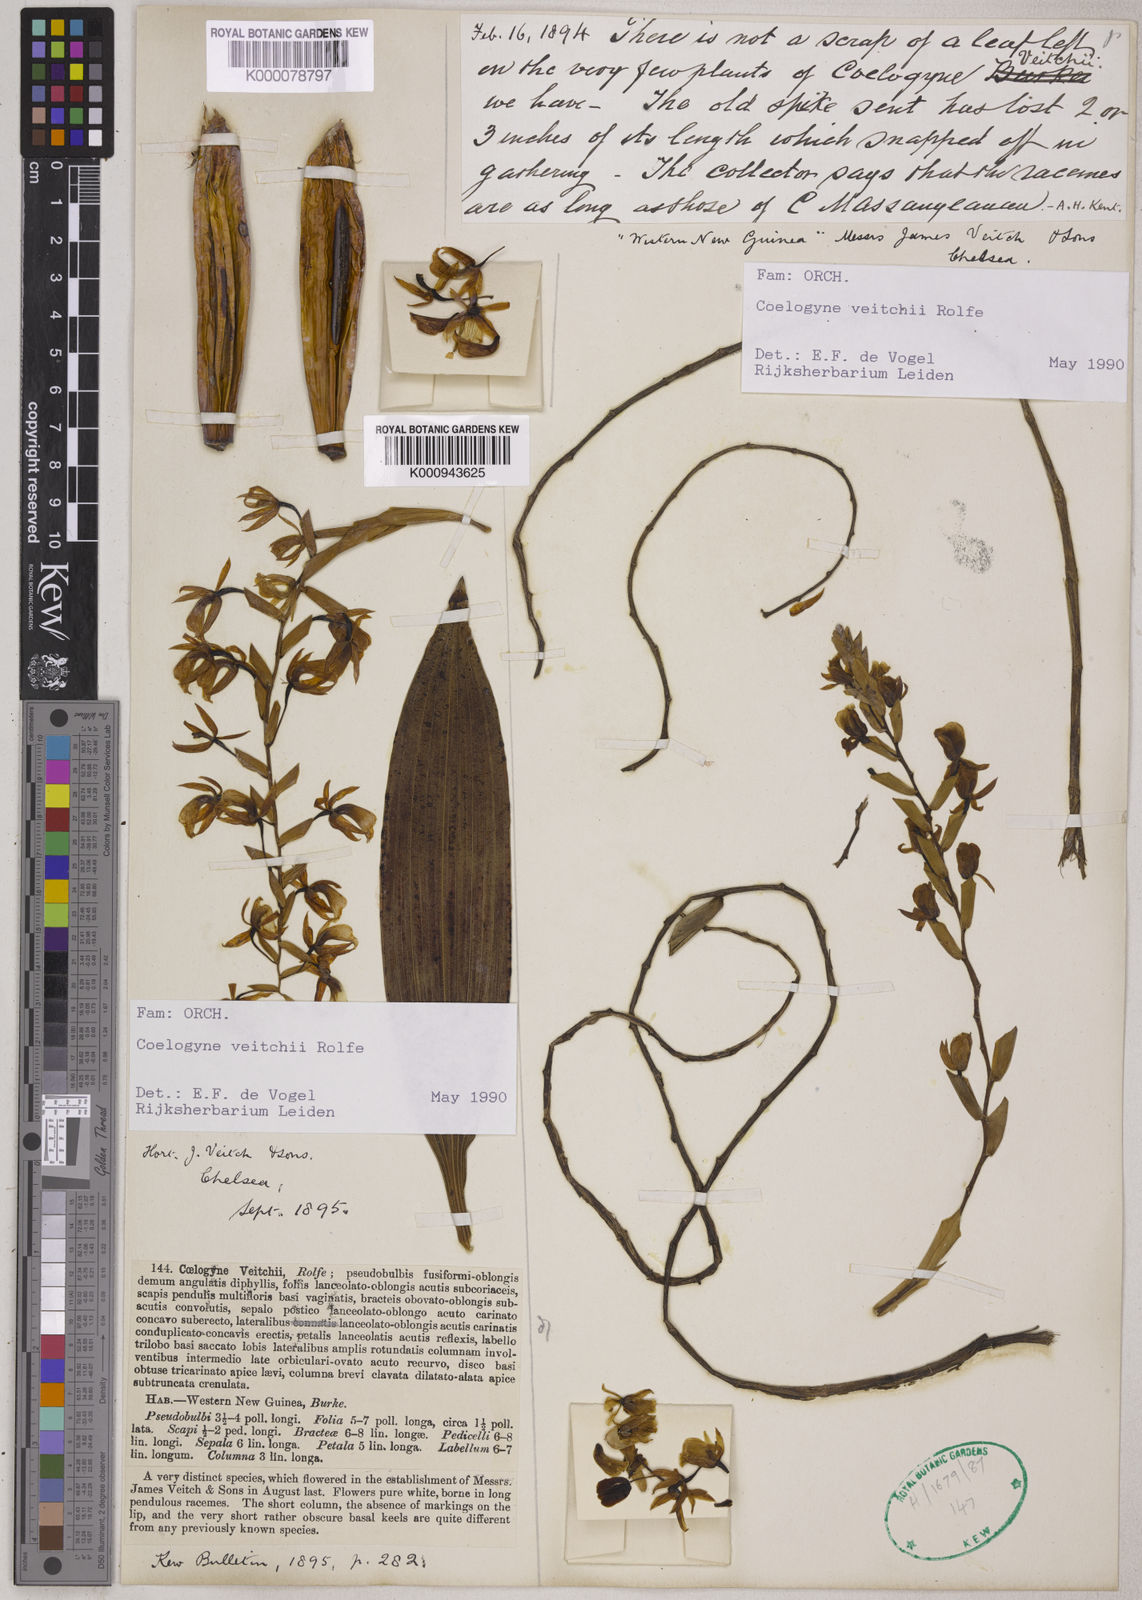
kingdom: Plantae
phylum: Tracheophyta
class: Liliopsida
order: Asparagales
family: Orchidaceae
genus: Coelogyne
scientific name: Coelogyne veitchii
